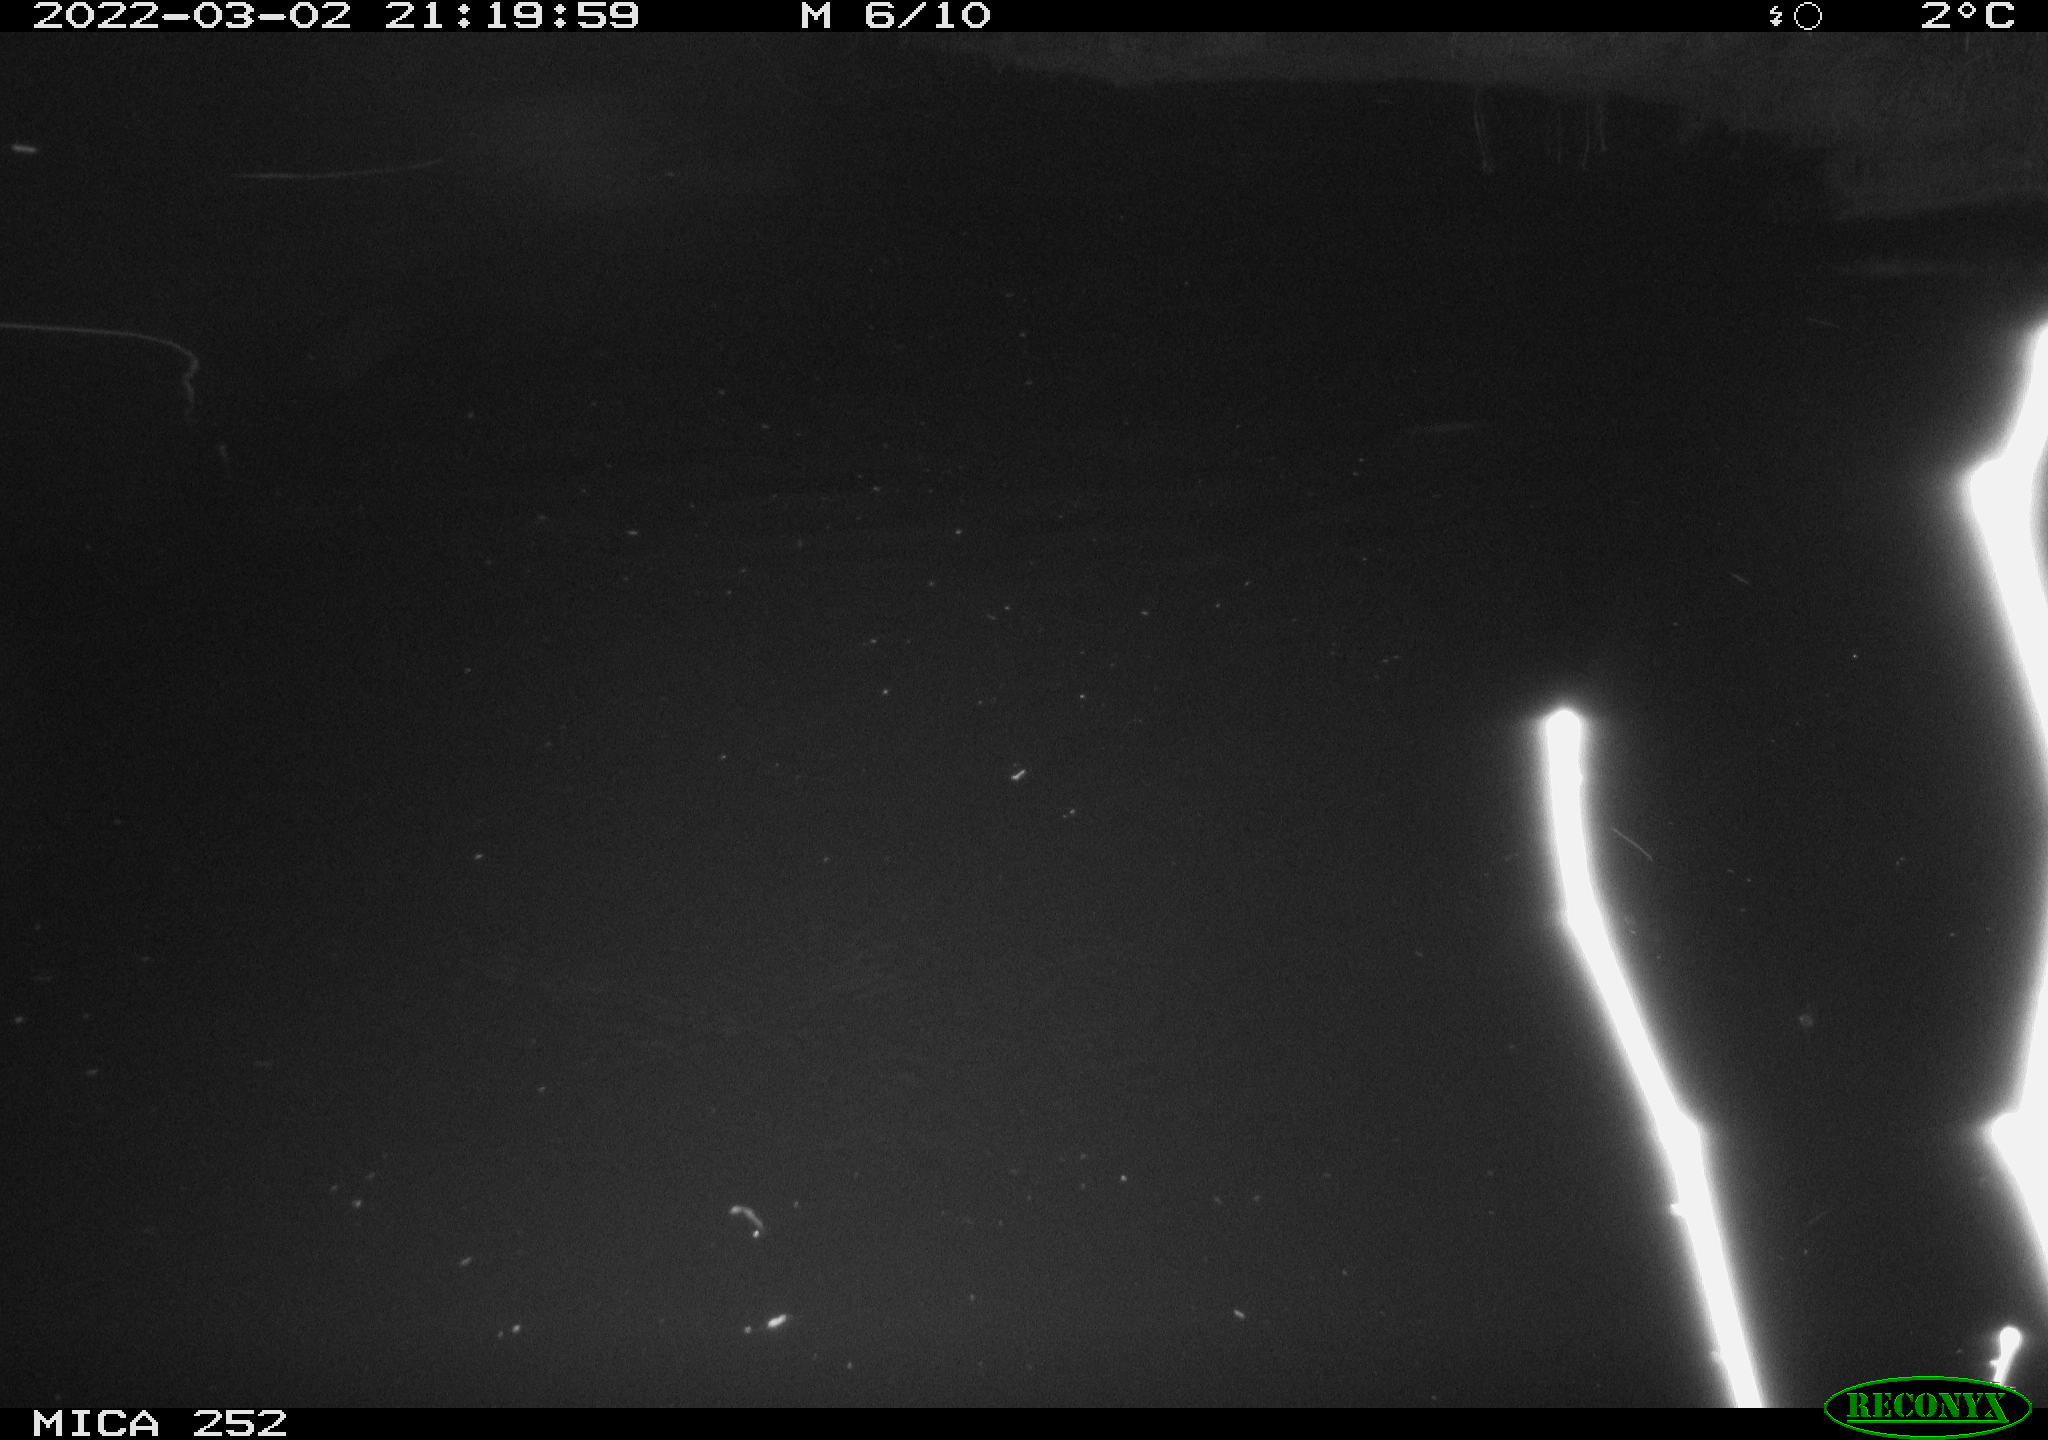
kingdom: Animalia
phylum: Chordata
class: Mammalia
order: Rodentia
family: Castoridae
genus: Castor
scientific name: Castor fiber
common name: Eurasian beaver
